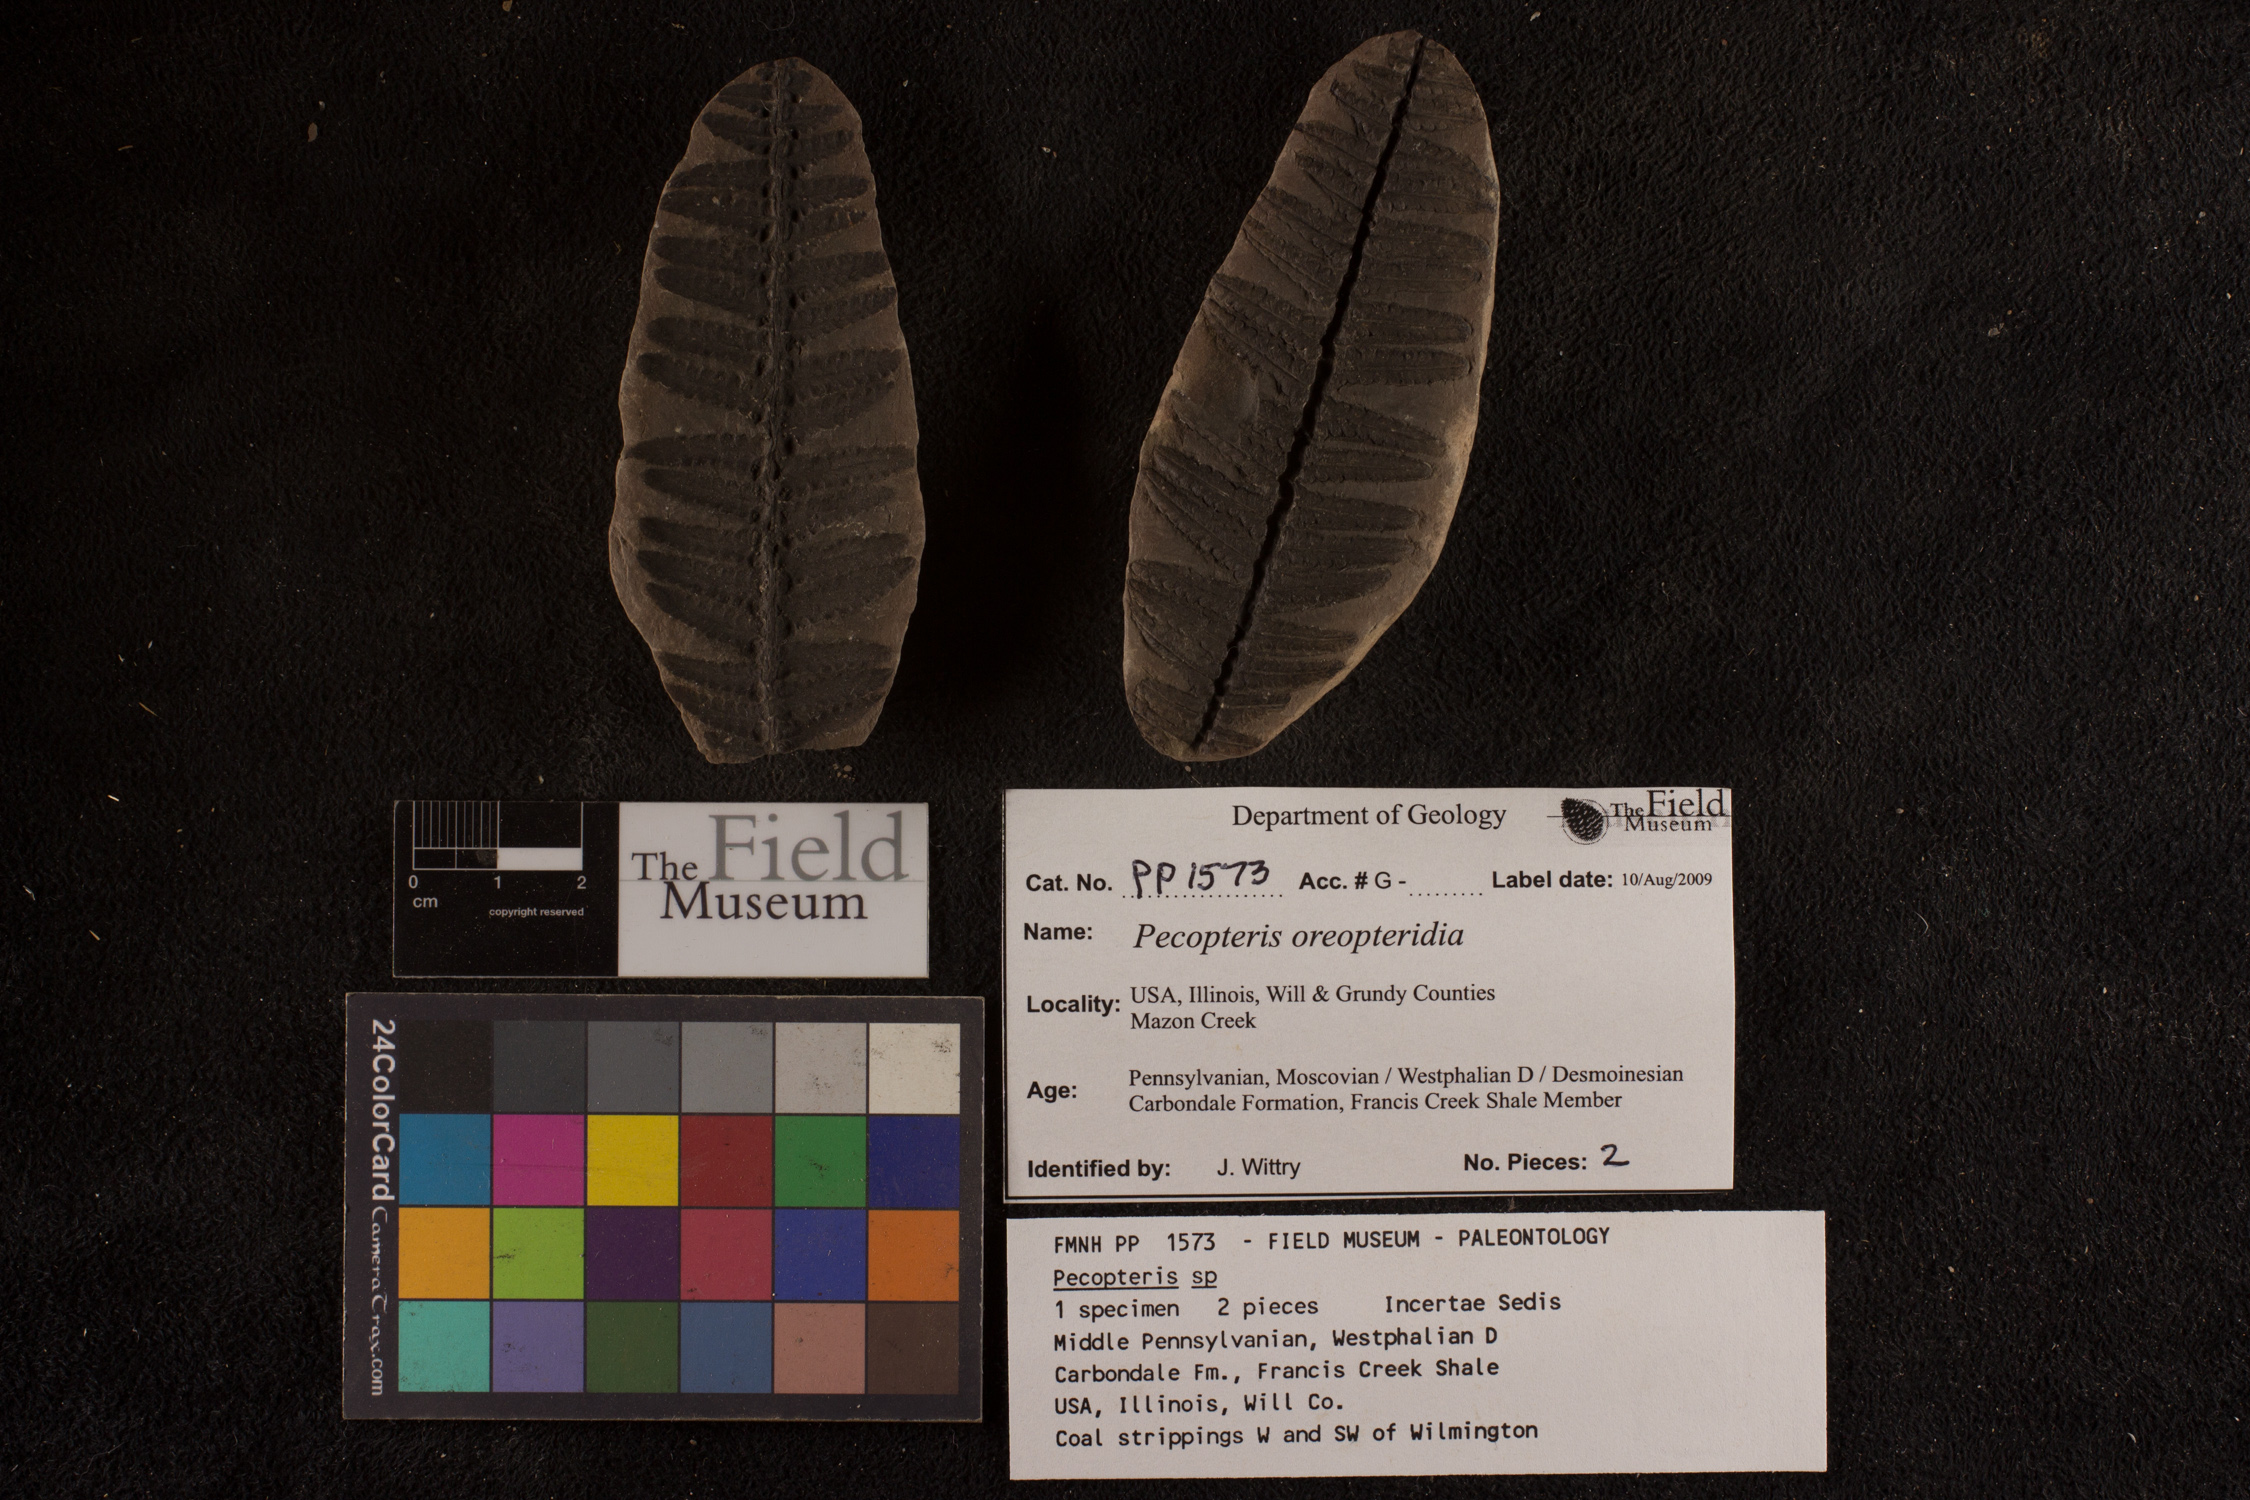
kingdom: Plantae
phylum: Tracheophyta
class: Polypodiopsida
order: Marattiales
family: Asterothecaceae
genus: Pecopteris
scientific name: Pecopteris
